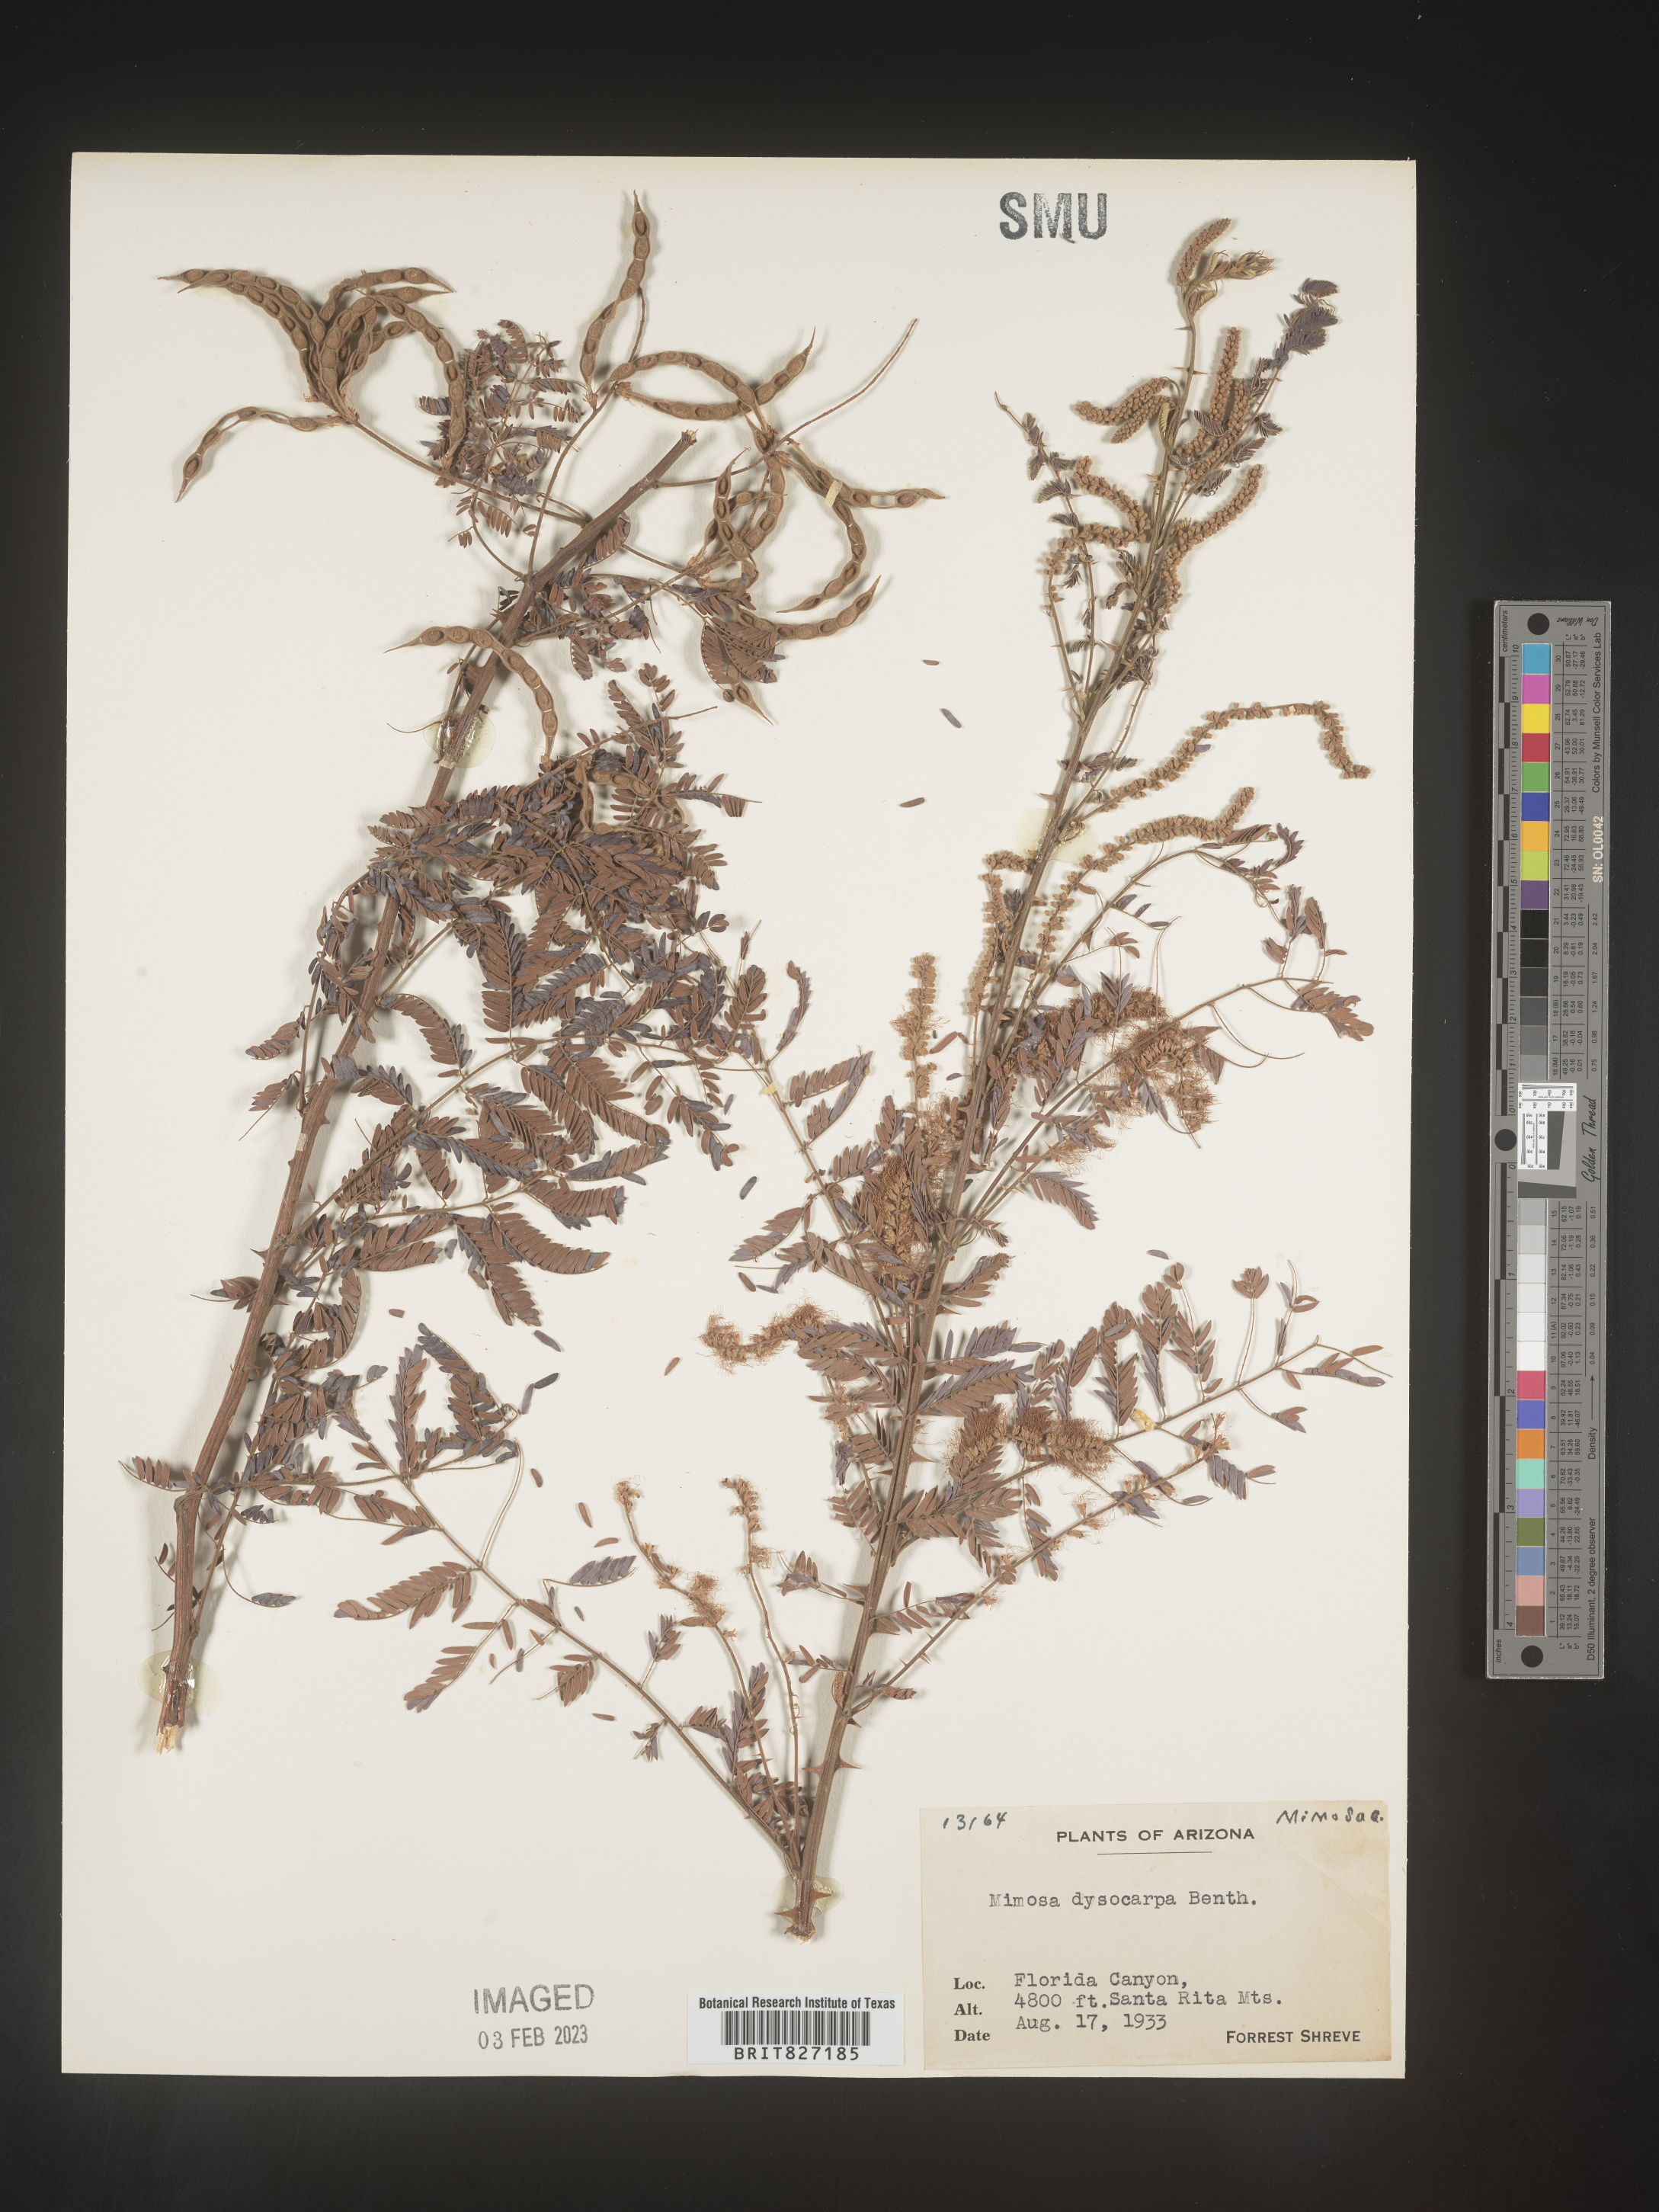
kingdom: Plantae
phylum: Tracheophyta
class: Magnoliopsida
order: Fabales
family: Fabaceae
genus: Mimosa
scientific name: Mimosa dysocarpa
